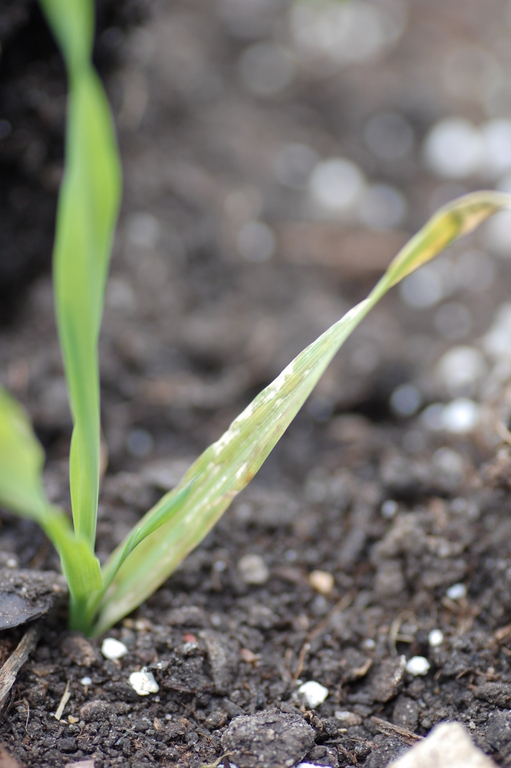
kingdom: Plantae
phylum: Tracheophyta
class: Liliopsida
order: Poales
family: Poaceae
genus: Hordeum
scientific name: Hordeum vulgare
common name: Common barley
